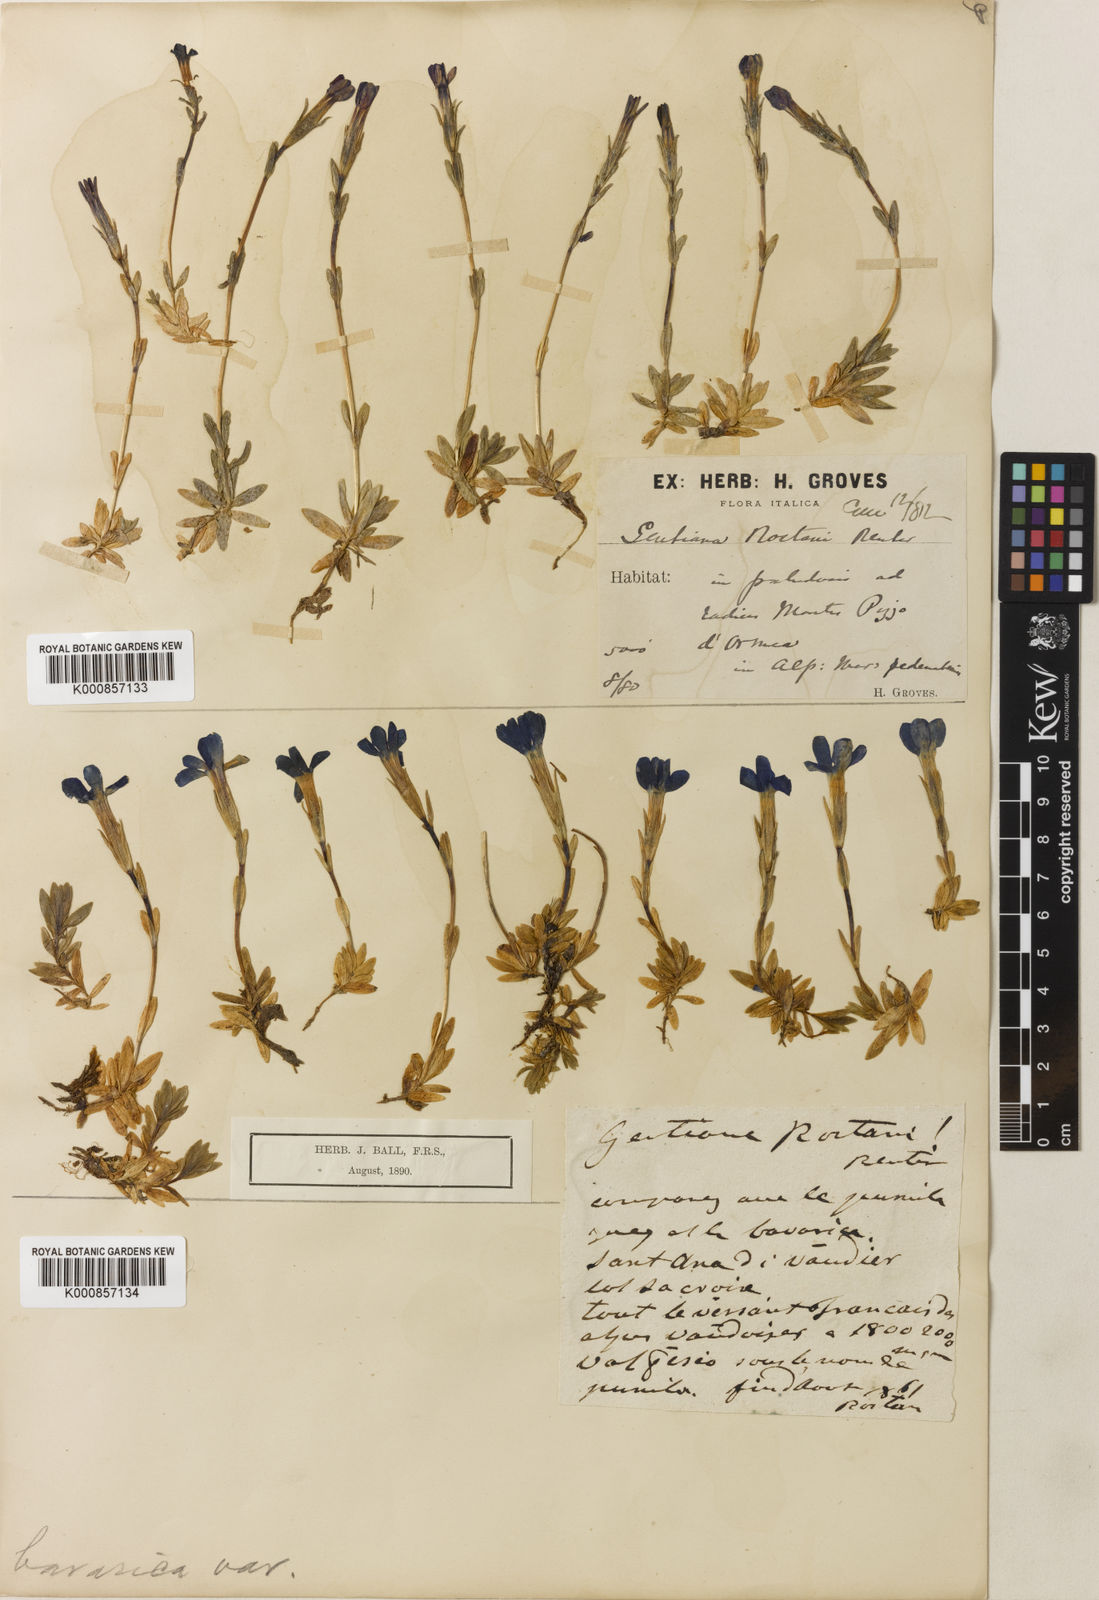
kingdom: Plantae
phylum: Tracheophyta
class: Magnoliopsida
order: Gentianales
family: Gentianaceae
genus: Gentiana
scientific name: Gentiana
